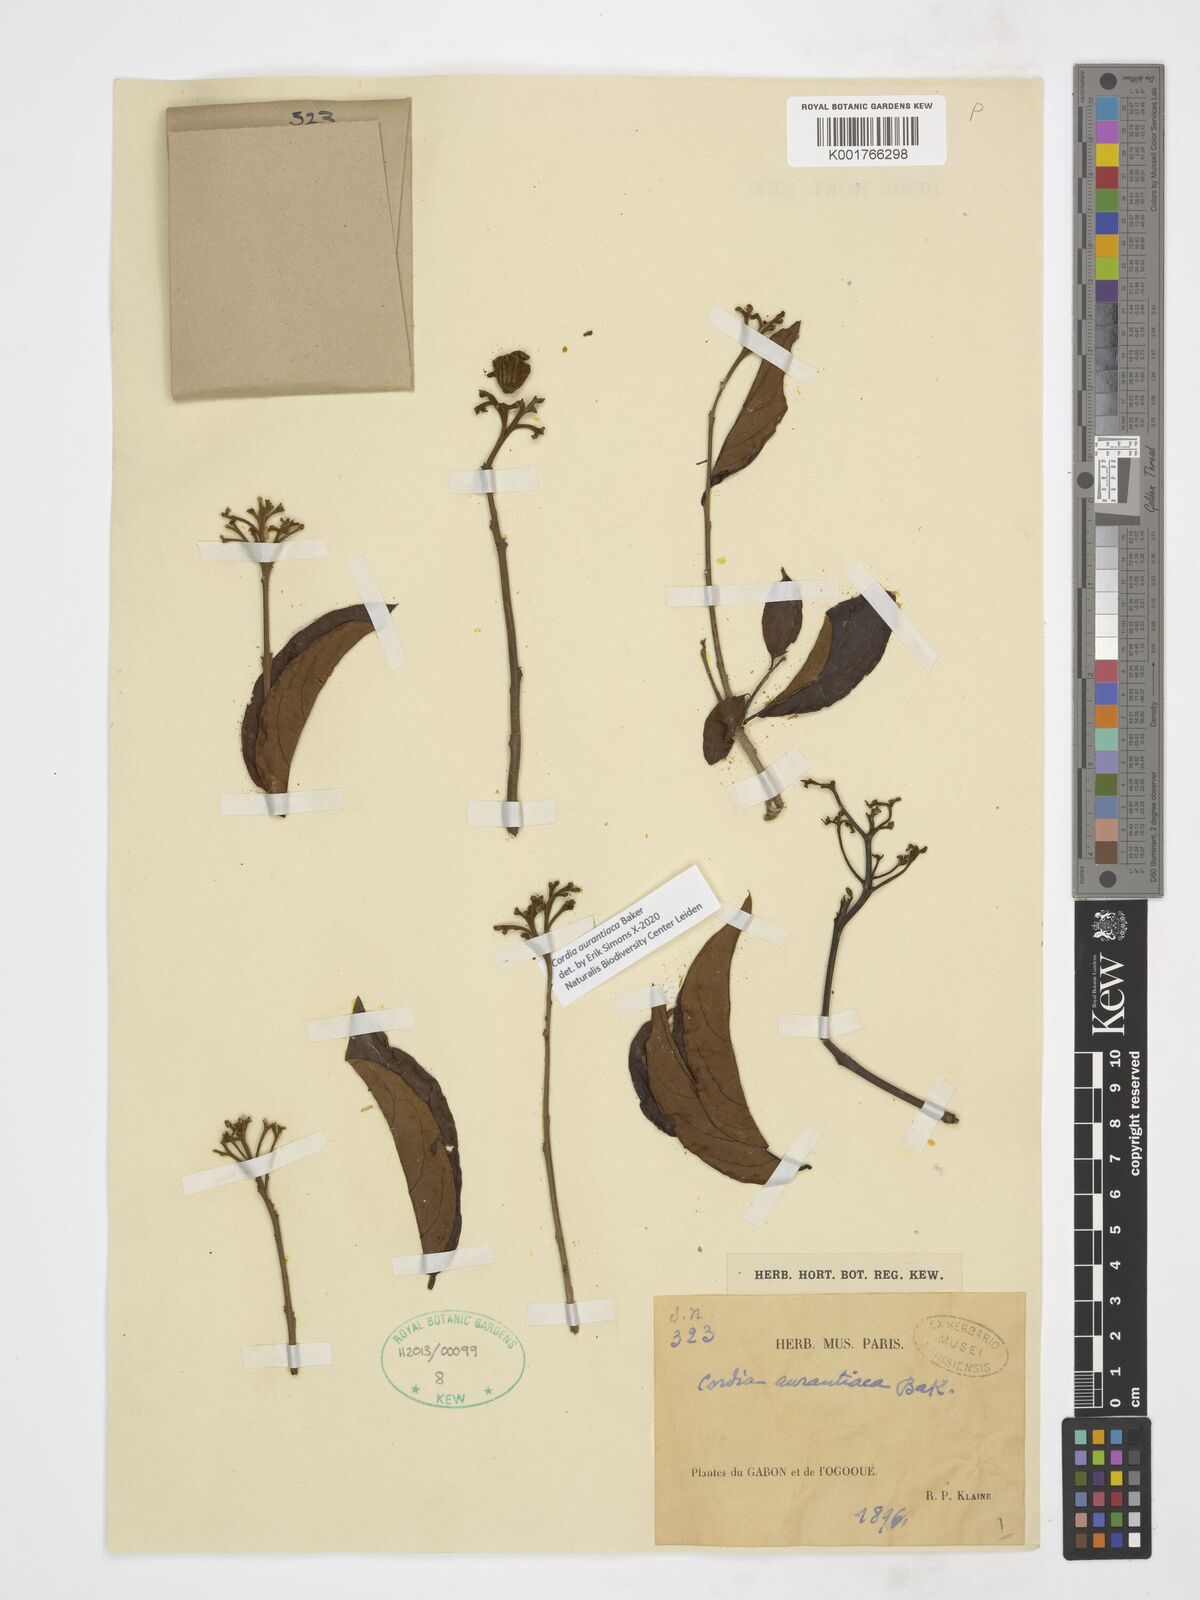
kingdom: Plantae
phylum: Tracheophyta
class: Magnoliopsida
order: Boraginales
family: Cordiaceae
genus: Cordia
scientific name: Cordia aurantiaca
